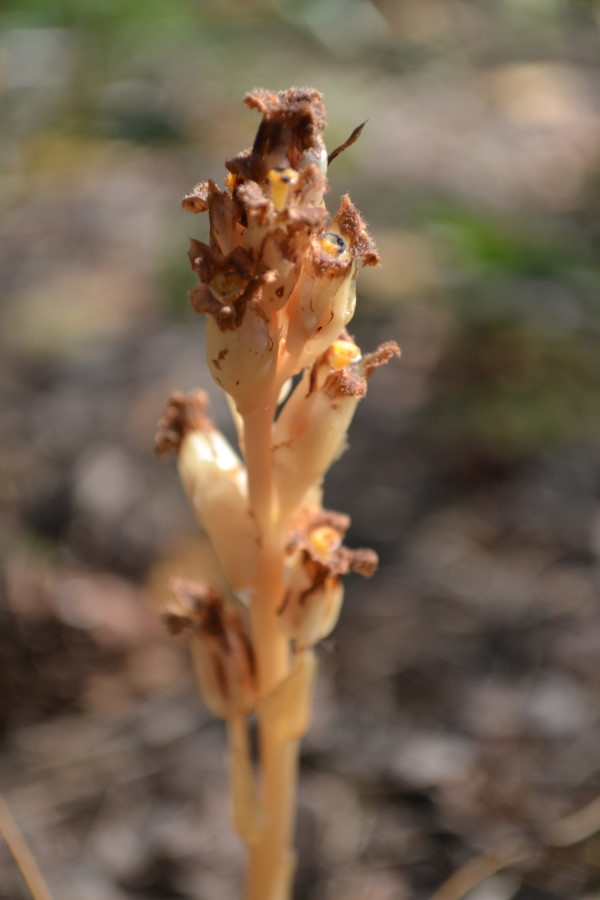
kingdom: Plantae
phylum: Tracheophyta
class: Magnoliopsida
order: Ericales
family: Ericaceae
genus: Hypopitys
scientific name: Hypopitys monotropa
